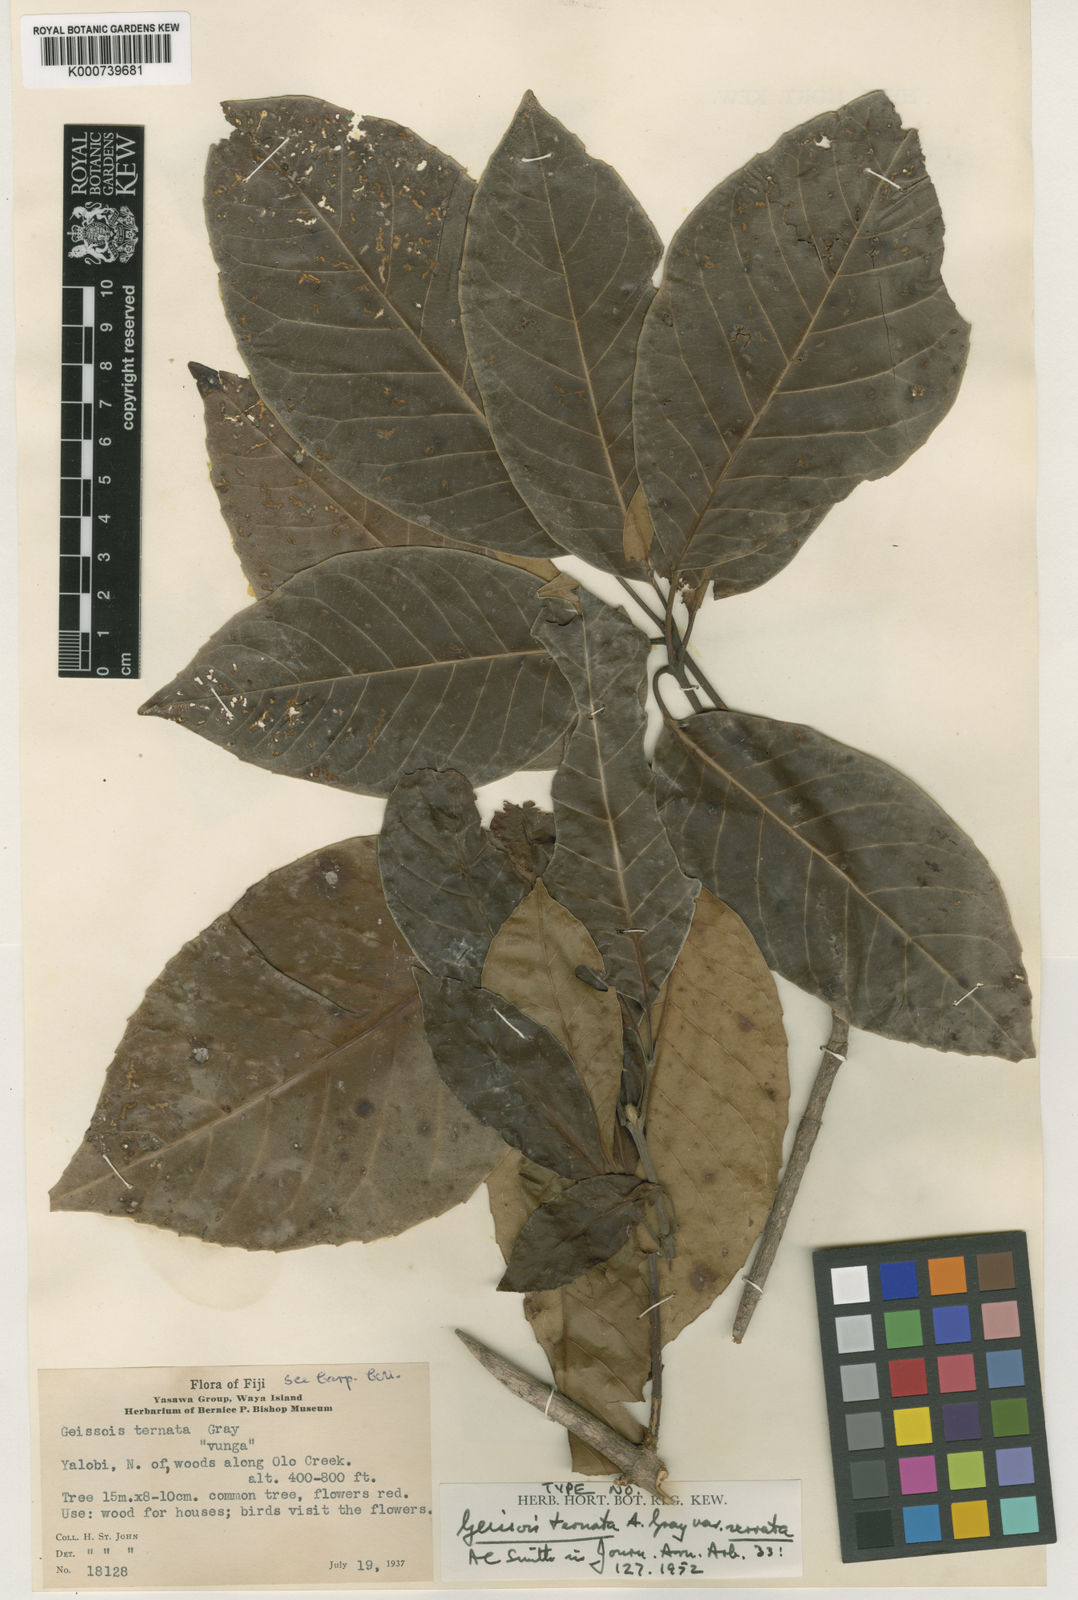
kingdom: Plantae
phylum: Tracheophyta
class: Magnoliopsida
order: Oxalidales
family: Cunoniaceae
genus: Geissois
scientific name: Geissois ternata
